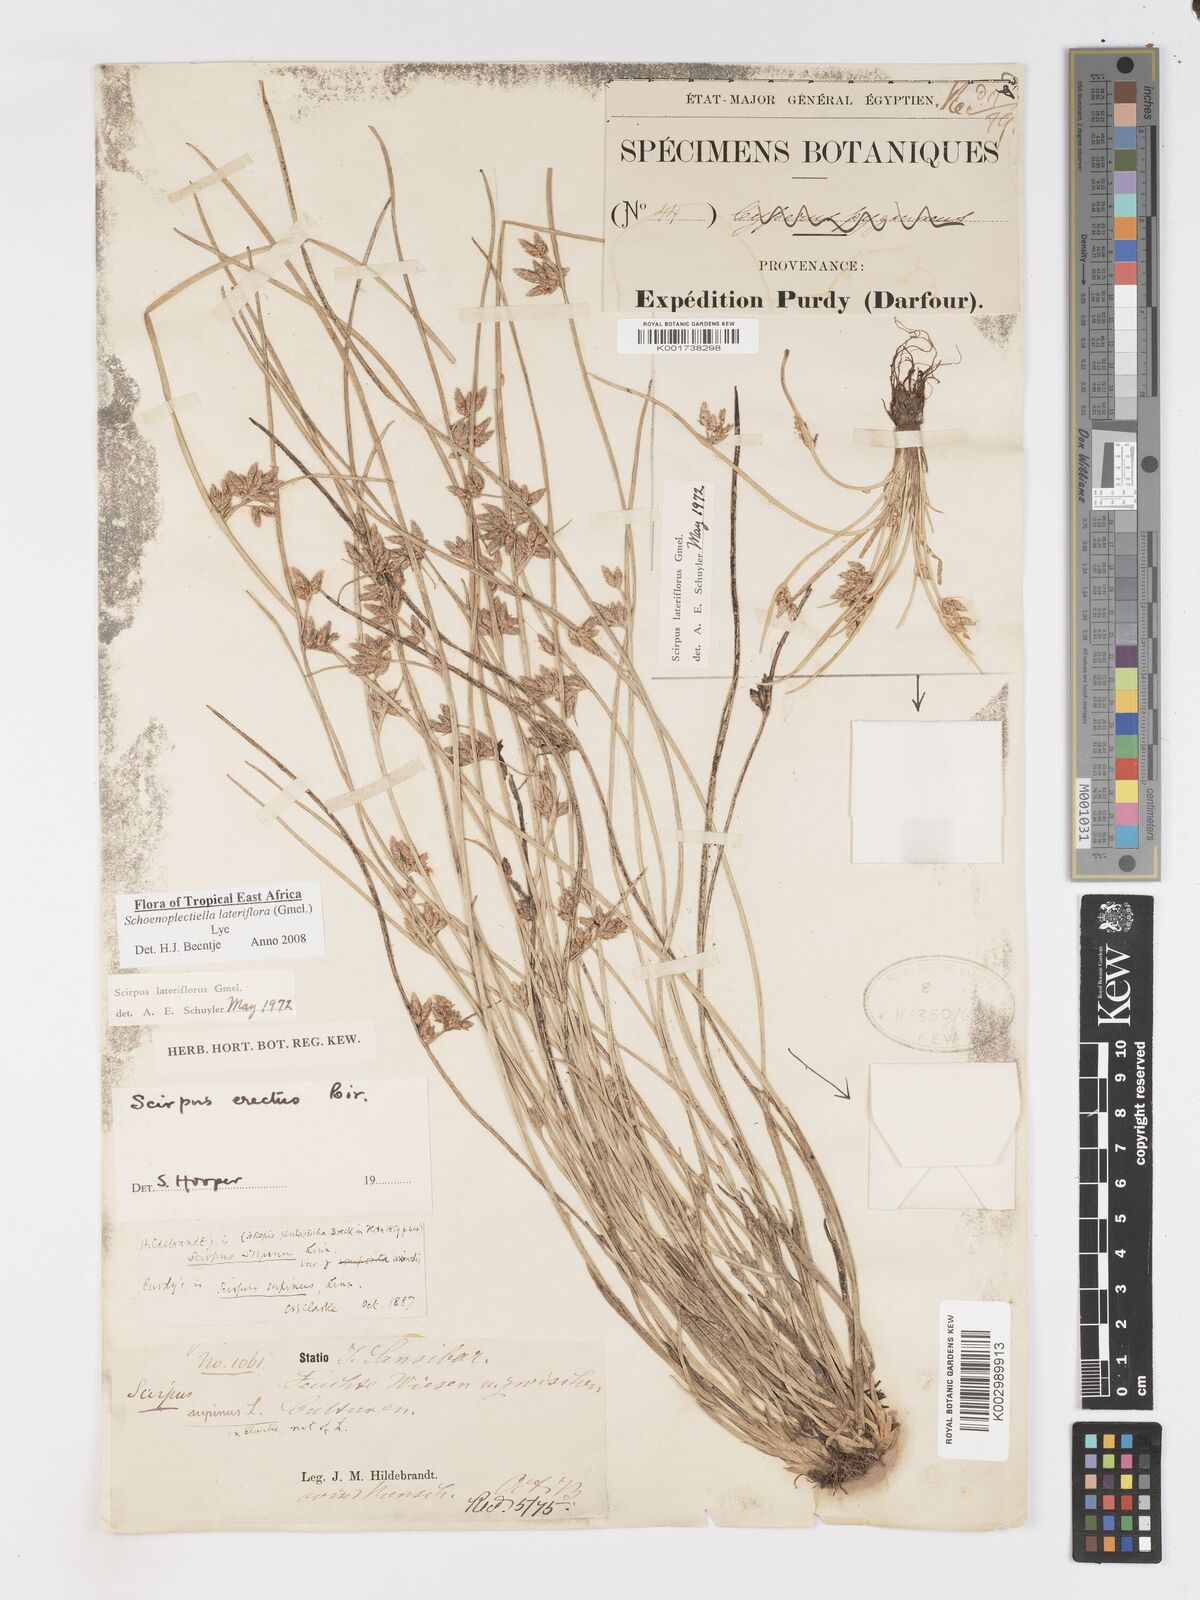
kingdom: Plantae
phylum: Tracheophyta
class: Liliopsida
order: Poales
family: Cyperaceae
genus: Schoenoplectiella
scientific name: Schoenoplectiella lateriflora
